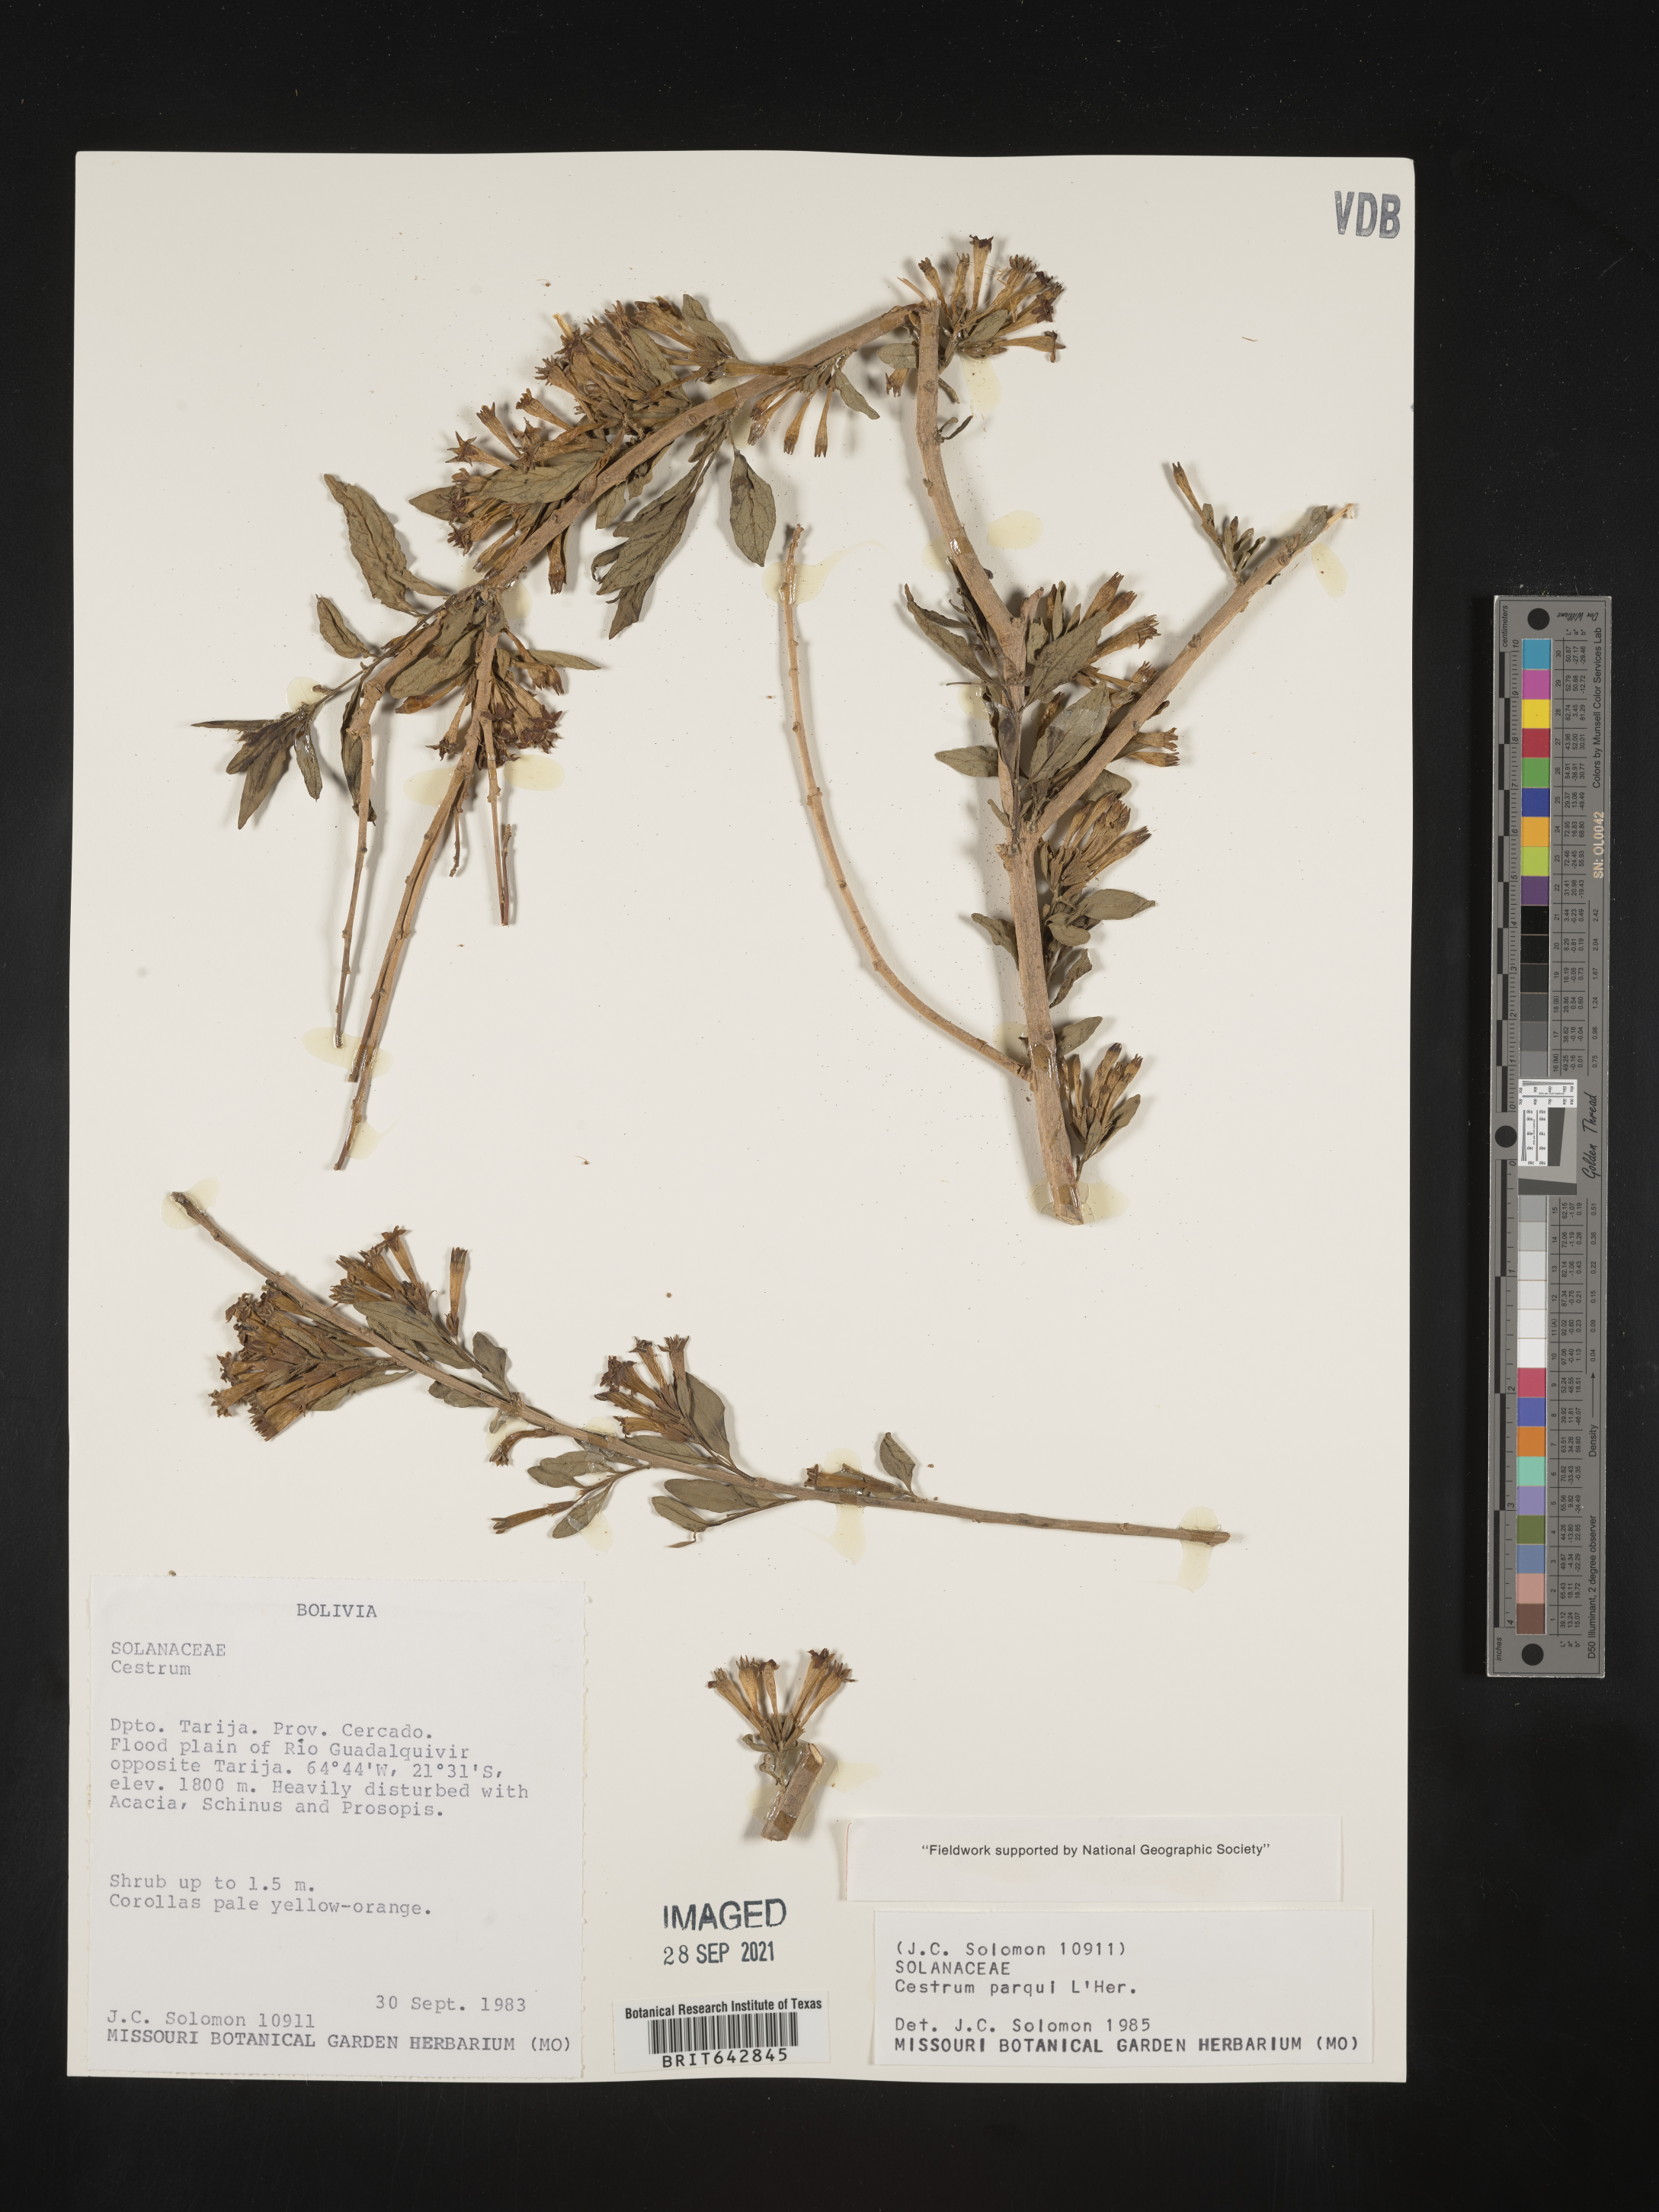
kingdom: Plantae
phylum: Tracheophyta
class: Magnoliopsida
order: Solanales
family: Solanaceae
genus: Cestrum
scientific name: Cestrum
